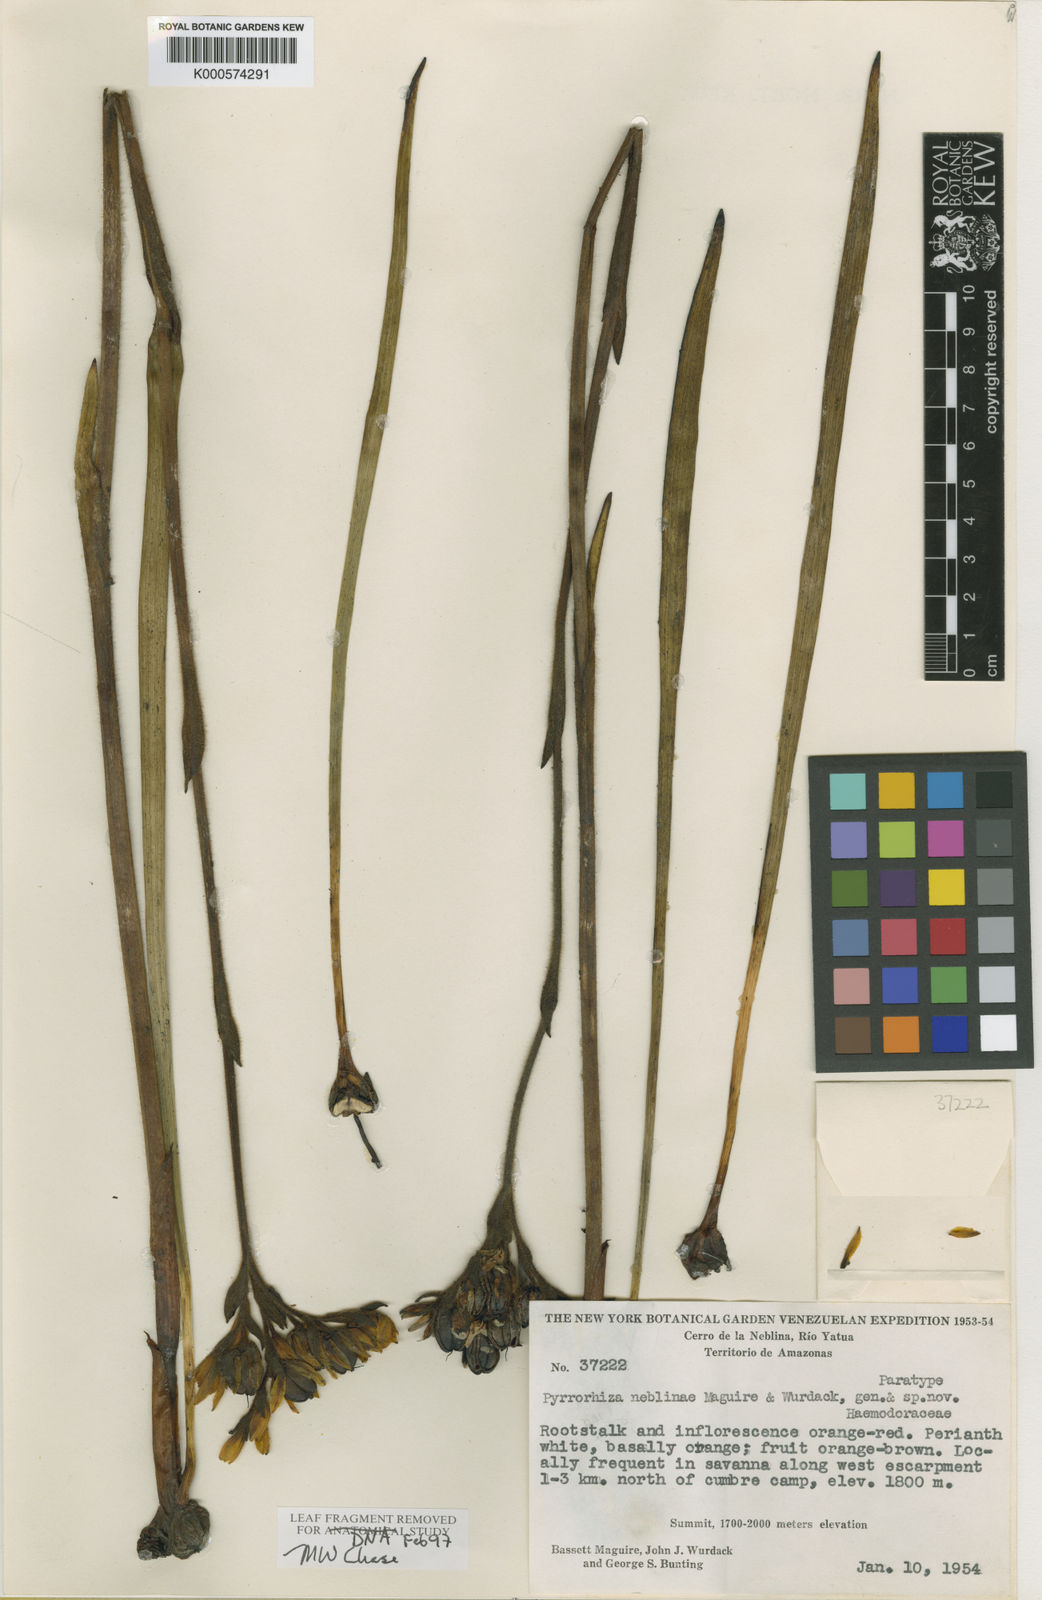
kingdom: Plantae
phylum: Tracheophyta
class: Liliopsida
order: Commelinales
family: Haemodoraceae
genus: Pyrrorhiza
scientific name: Pyrrorhiza neblinae
